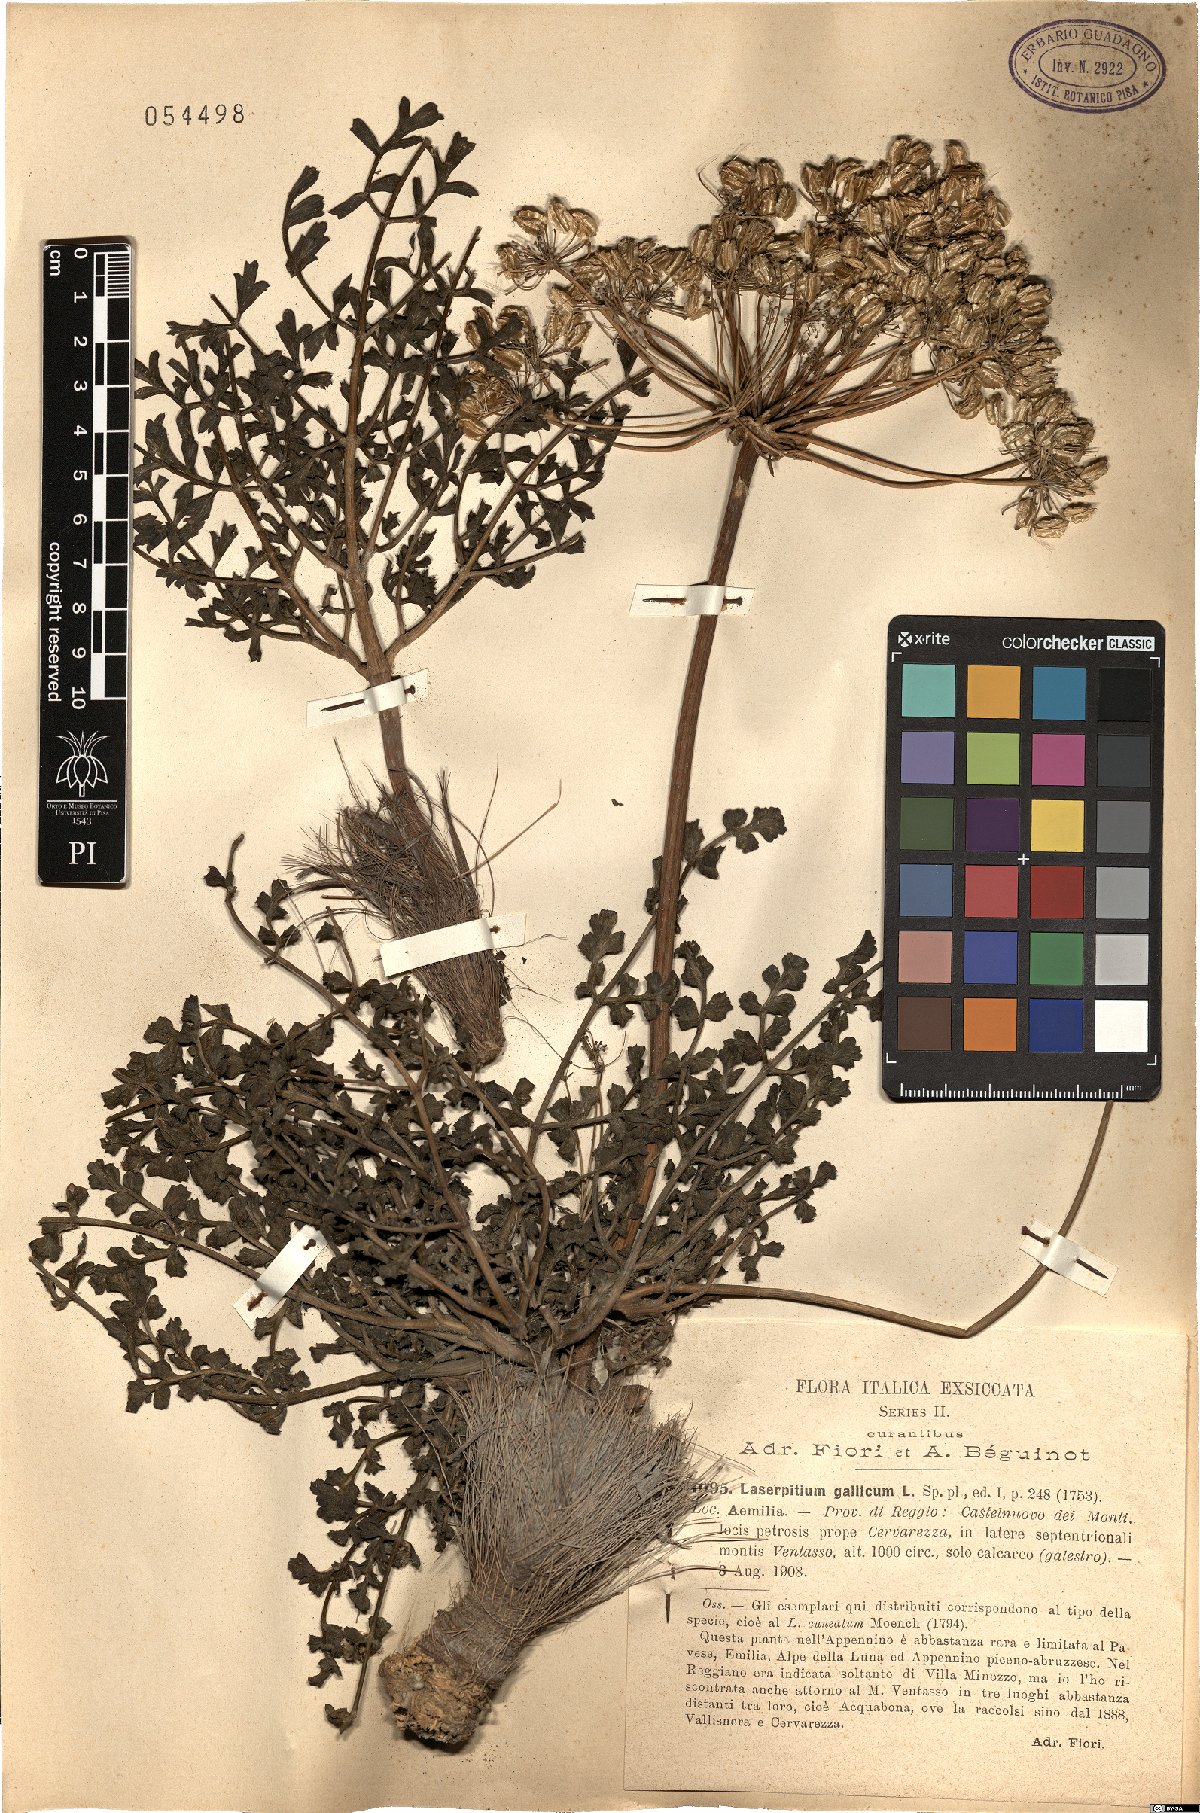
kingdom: Plantae
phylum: Tracheophyta
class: Magnoliopsida
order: Apiales
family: Apiaceae
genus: Laserpitium
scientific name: Laserpitium gallicum
